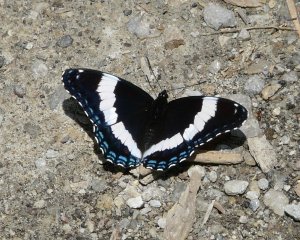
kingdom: Animalia
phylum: Arthropoda
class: Insecta
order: Lepidoptera
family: Nymphalidae
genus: Limenitis
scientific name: Limenitis arthemis
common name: Red-spotted Admiral
